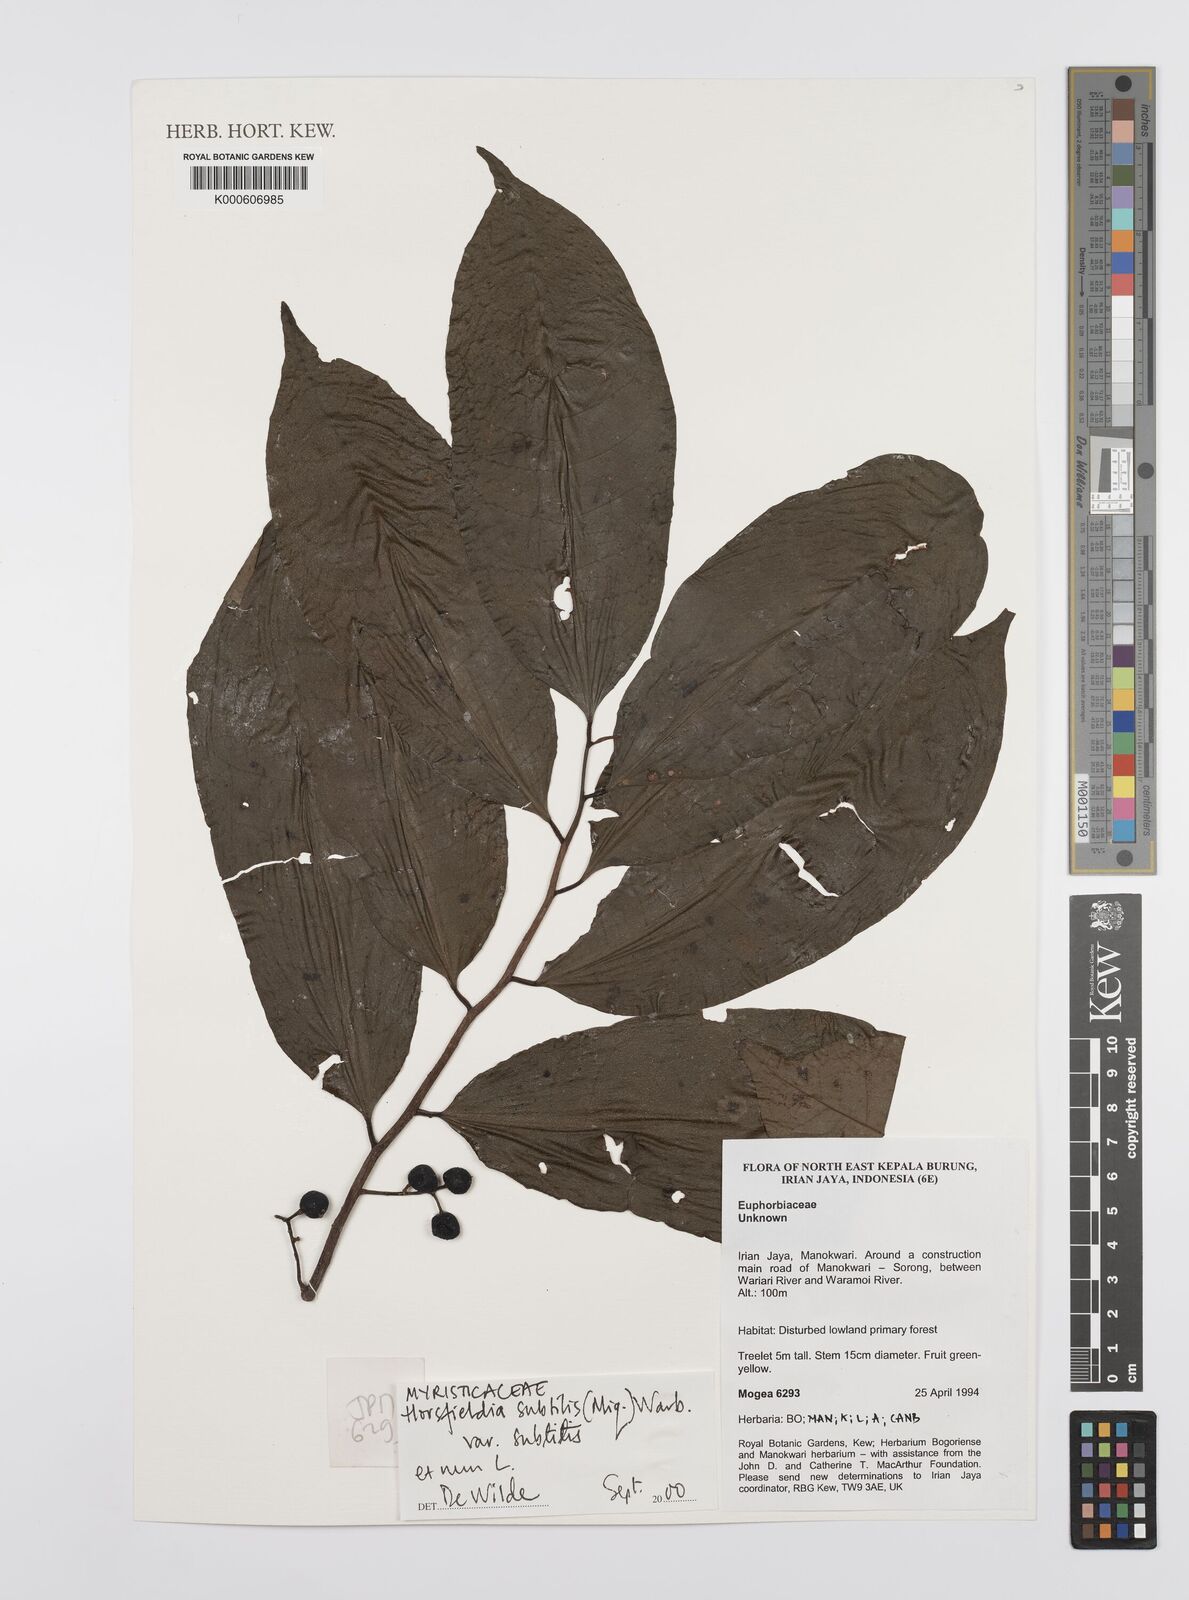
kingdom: Plantae
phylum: Tracheophyta
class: Magnoliopsida
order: Magnoliales
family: Myristicaceae
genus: Horsfieldia
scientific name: Horsfieldia subtilis
